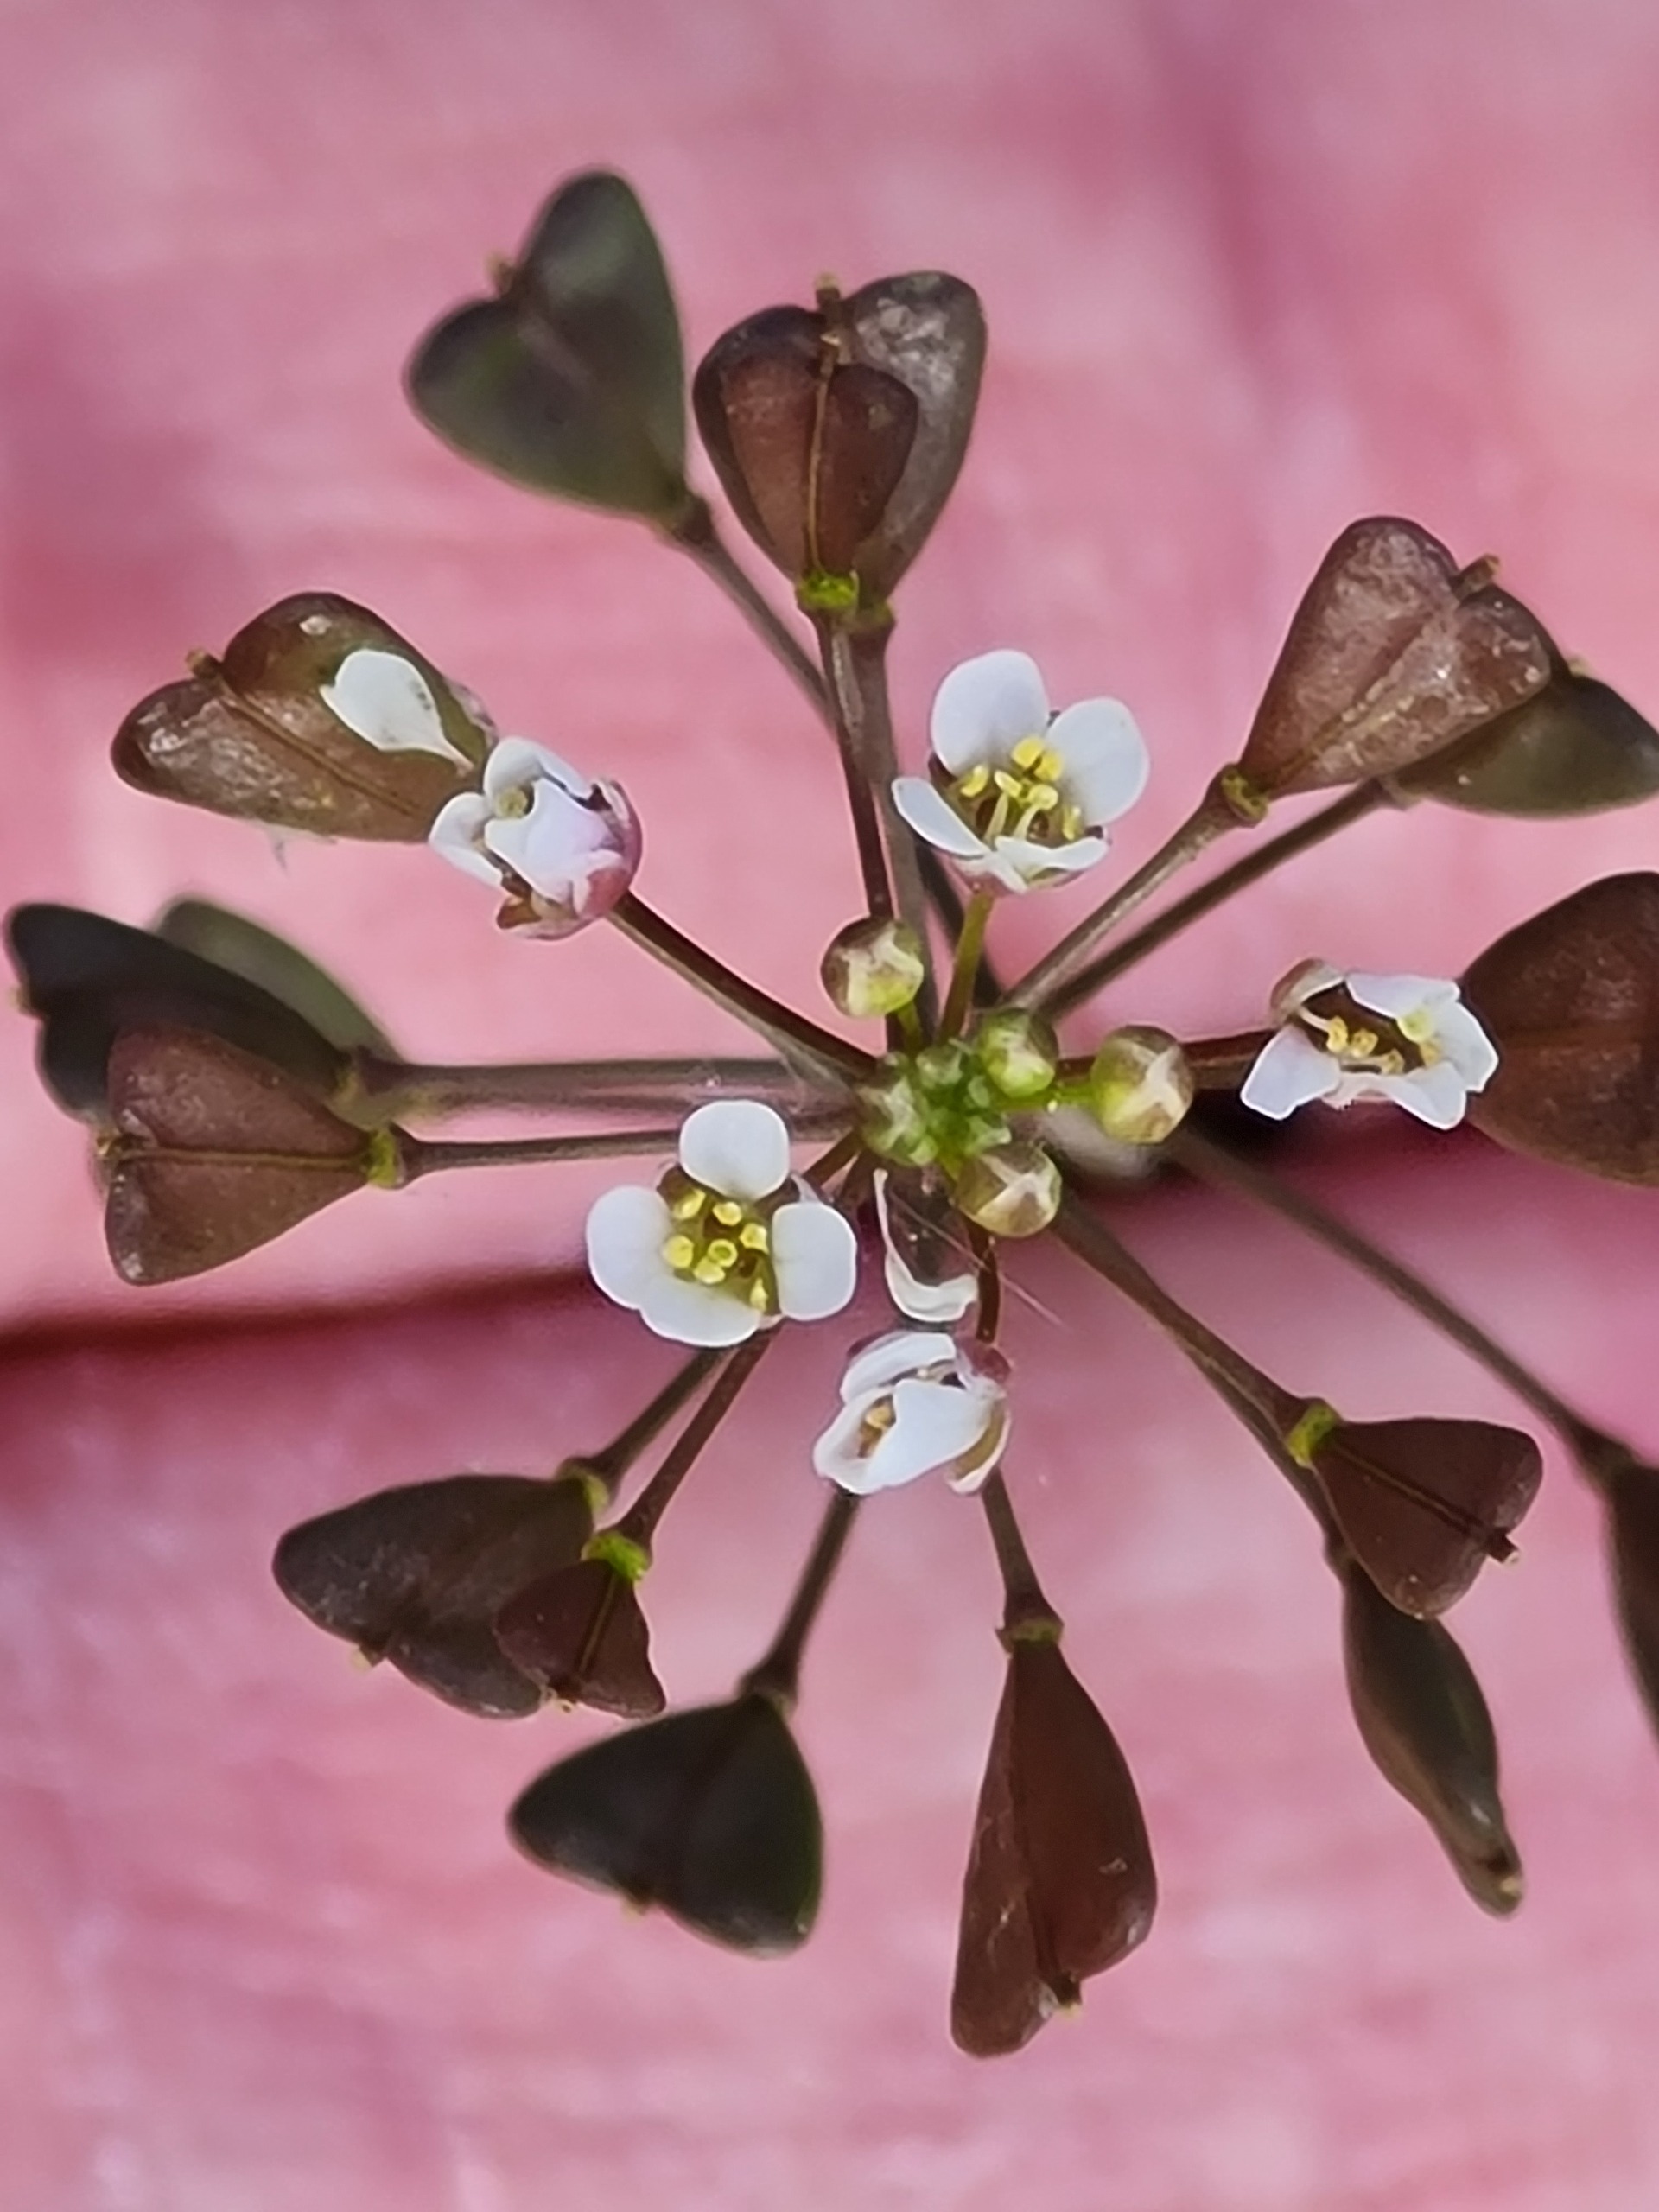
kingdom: Plantae
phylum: Tracheophyta
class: Magnoliopsida
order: Brassicales
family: Brassicaceae
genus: Capsella
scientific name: Capsella bursa-pastoris
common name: Hyrdetaske
